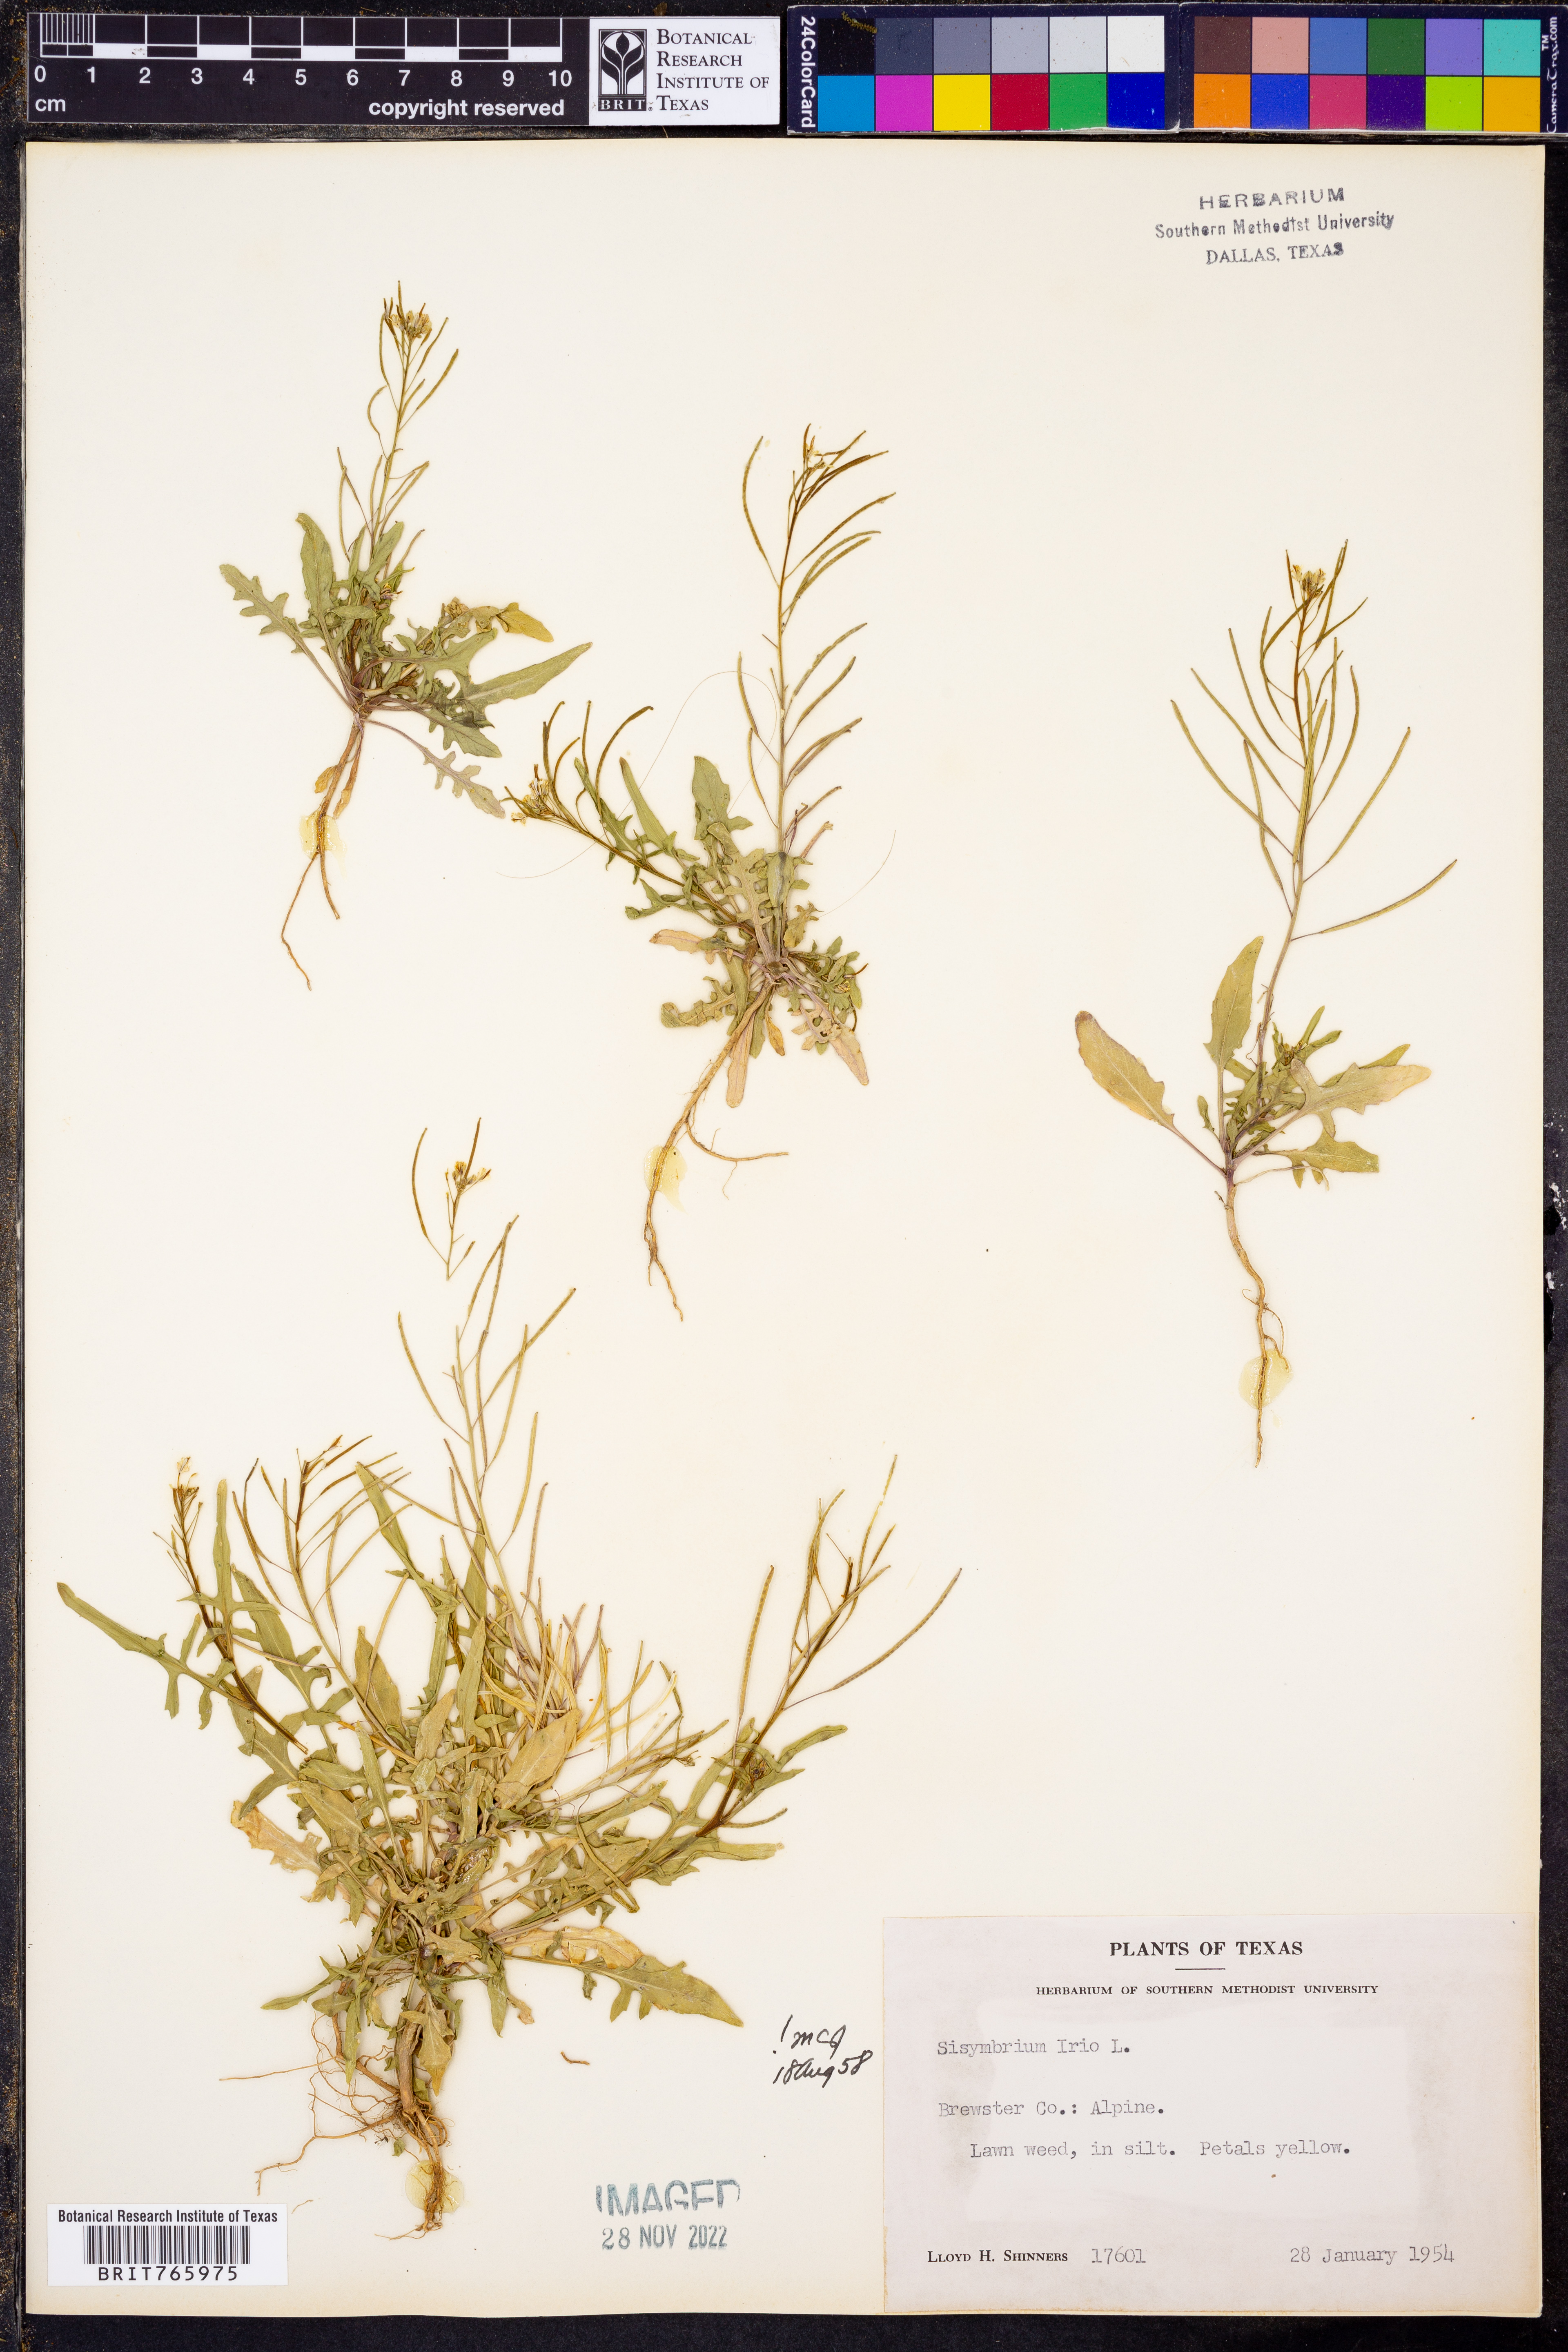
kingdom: Plantae
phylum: Tracheophyta
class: Magnoliopsida
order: Brassicales
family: Brassicaceae
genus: Sisymbrium
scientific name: Sisymbrium irio
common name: London rocket
